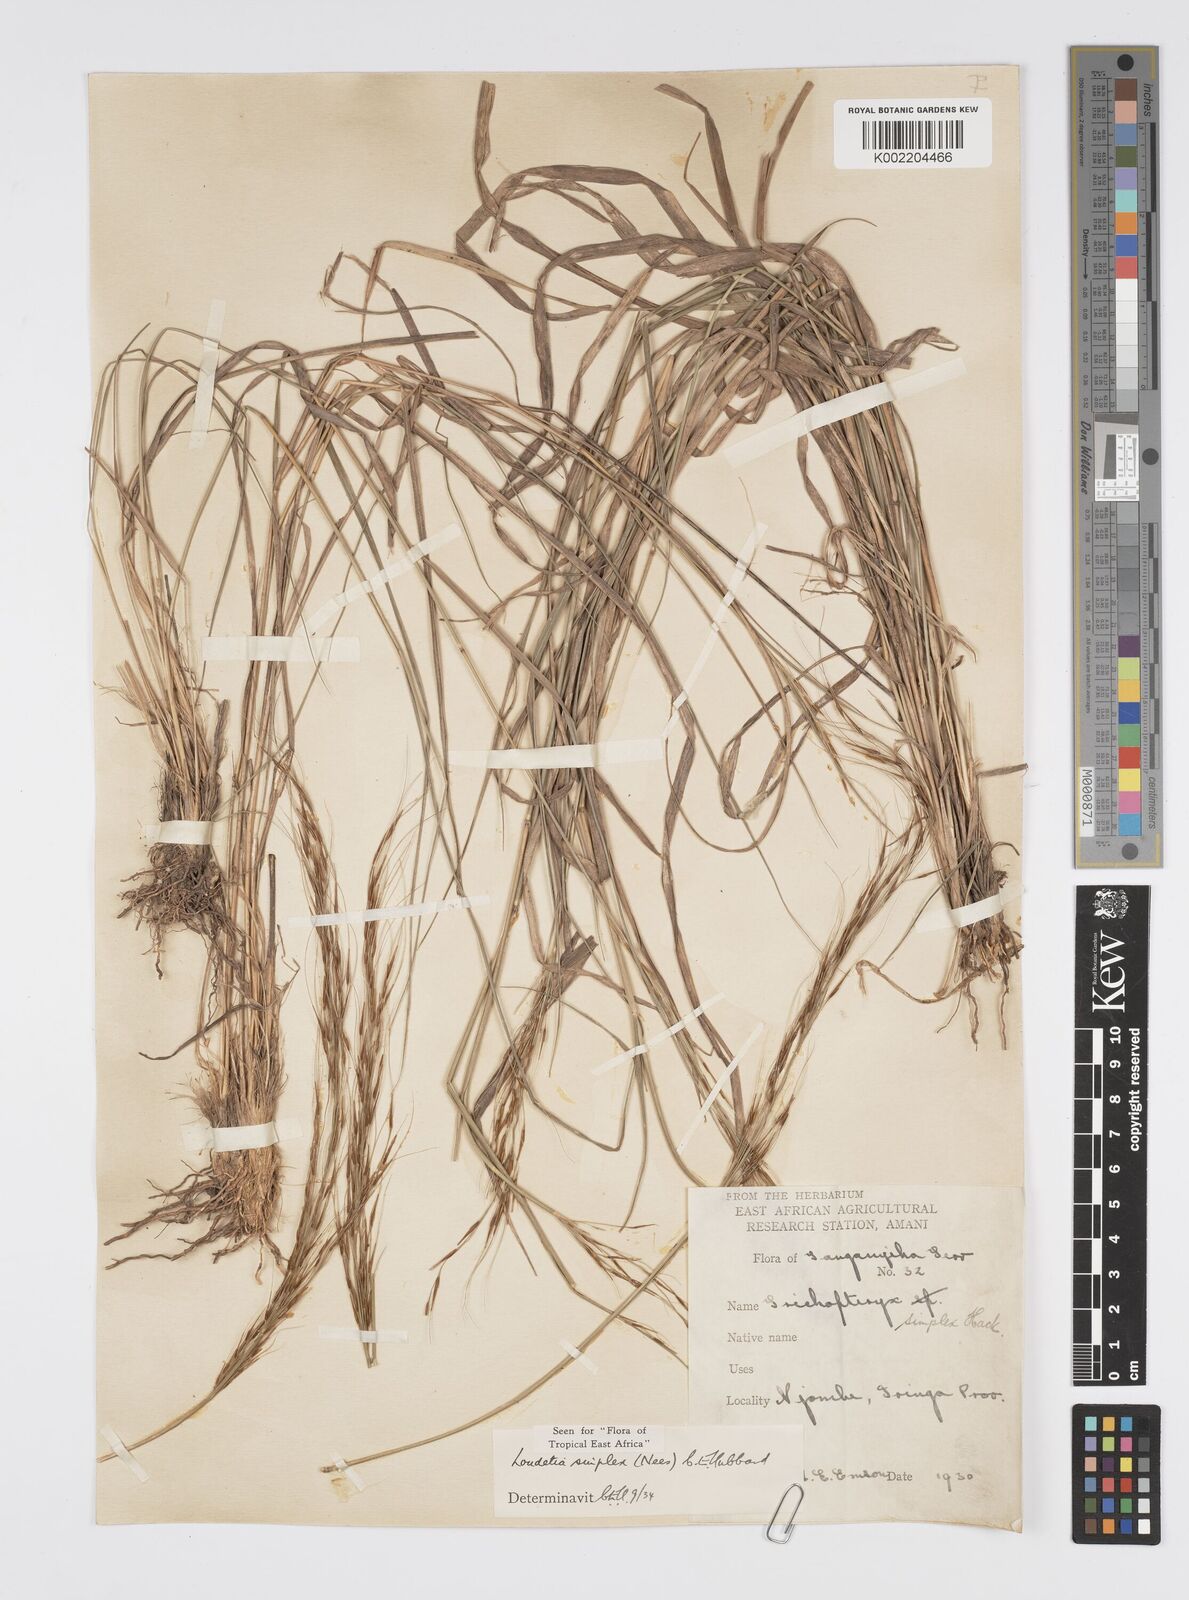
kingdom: Plantae
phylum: Tracheophyta
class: Liliopsida
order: Poales
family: Poaceae
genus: Loudetia
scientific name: Loudetia simplex
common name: Common russet grass
